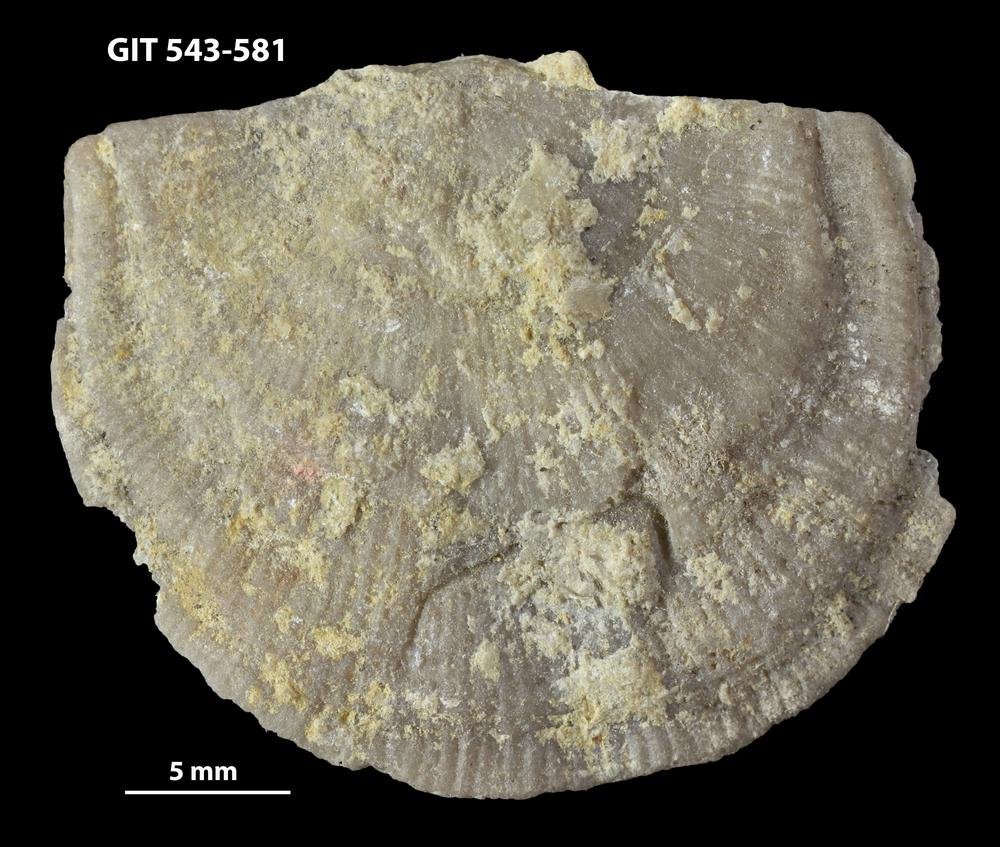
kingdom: Animalia
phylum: Brachiopoda
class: Rhynchonellata
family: Clitambonitidae
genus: Vellamo
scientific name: Vellamo emarginata
